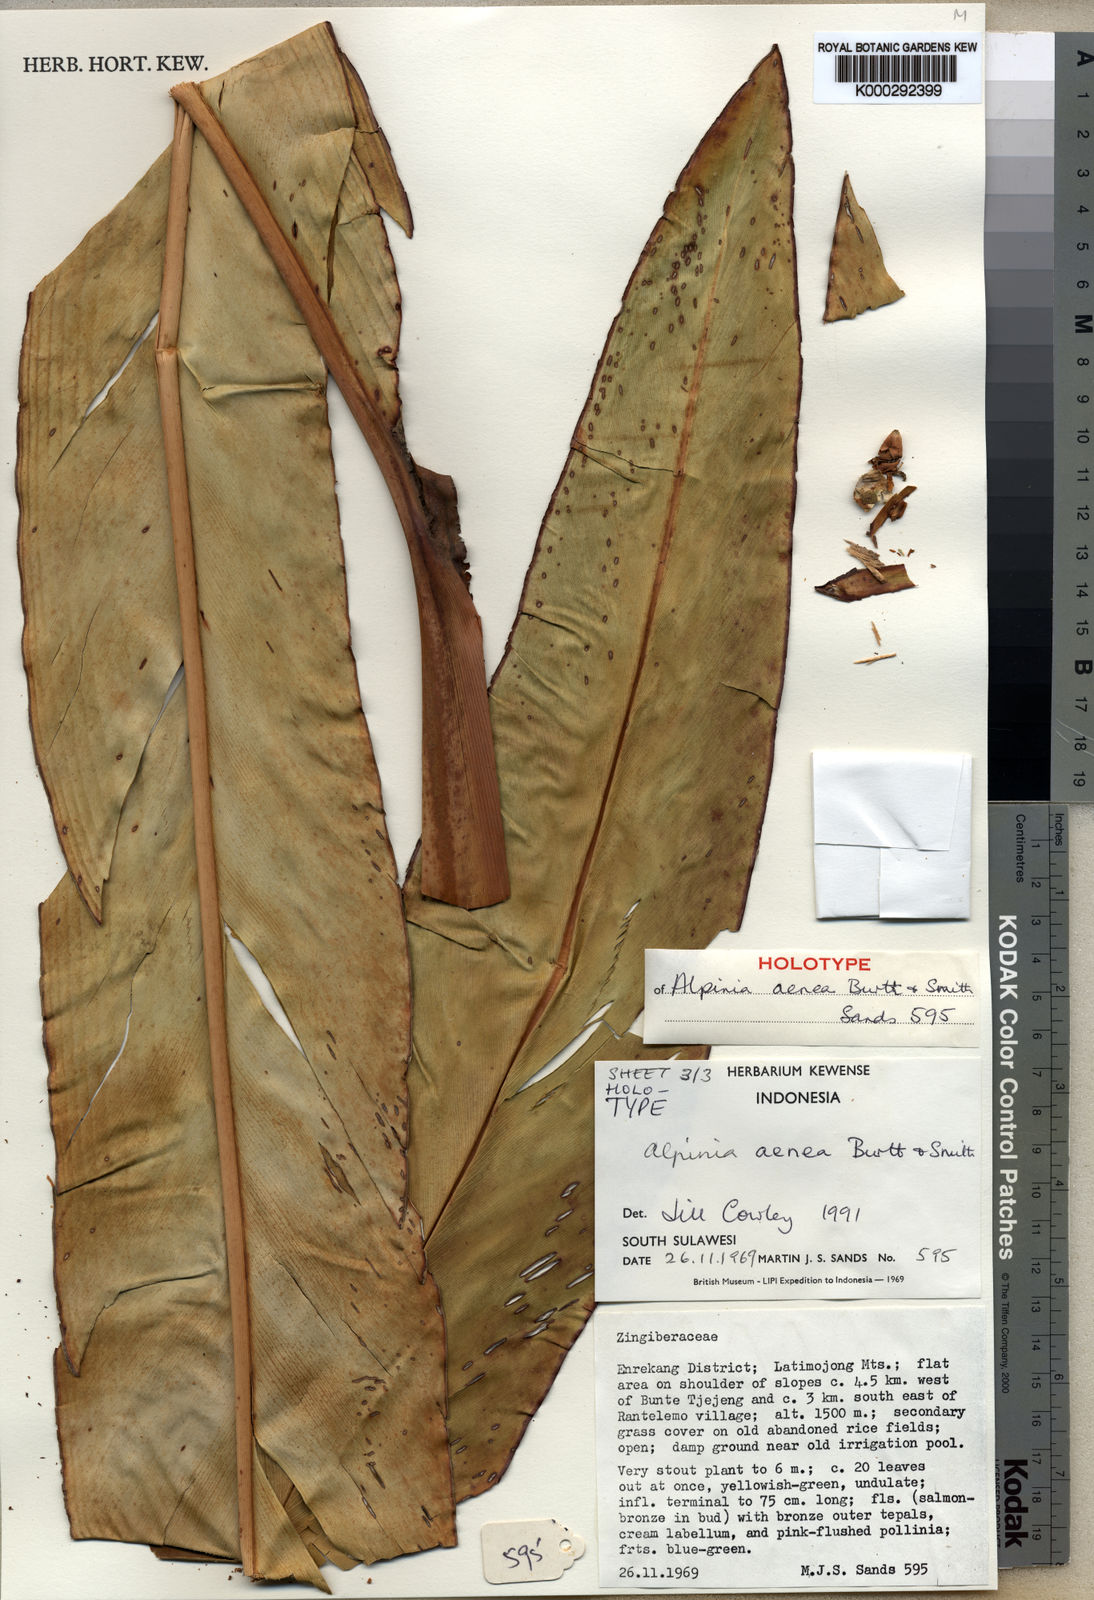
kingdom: Plantae
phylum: Tracheophyta
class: Liliopsida
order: Zingiberales
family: Zingiberaceae
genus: Alpinia
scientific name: Alpinia aenea
